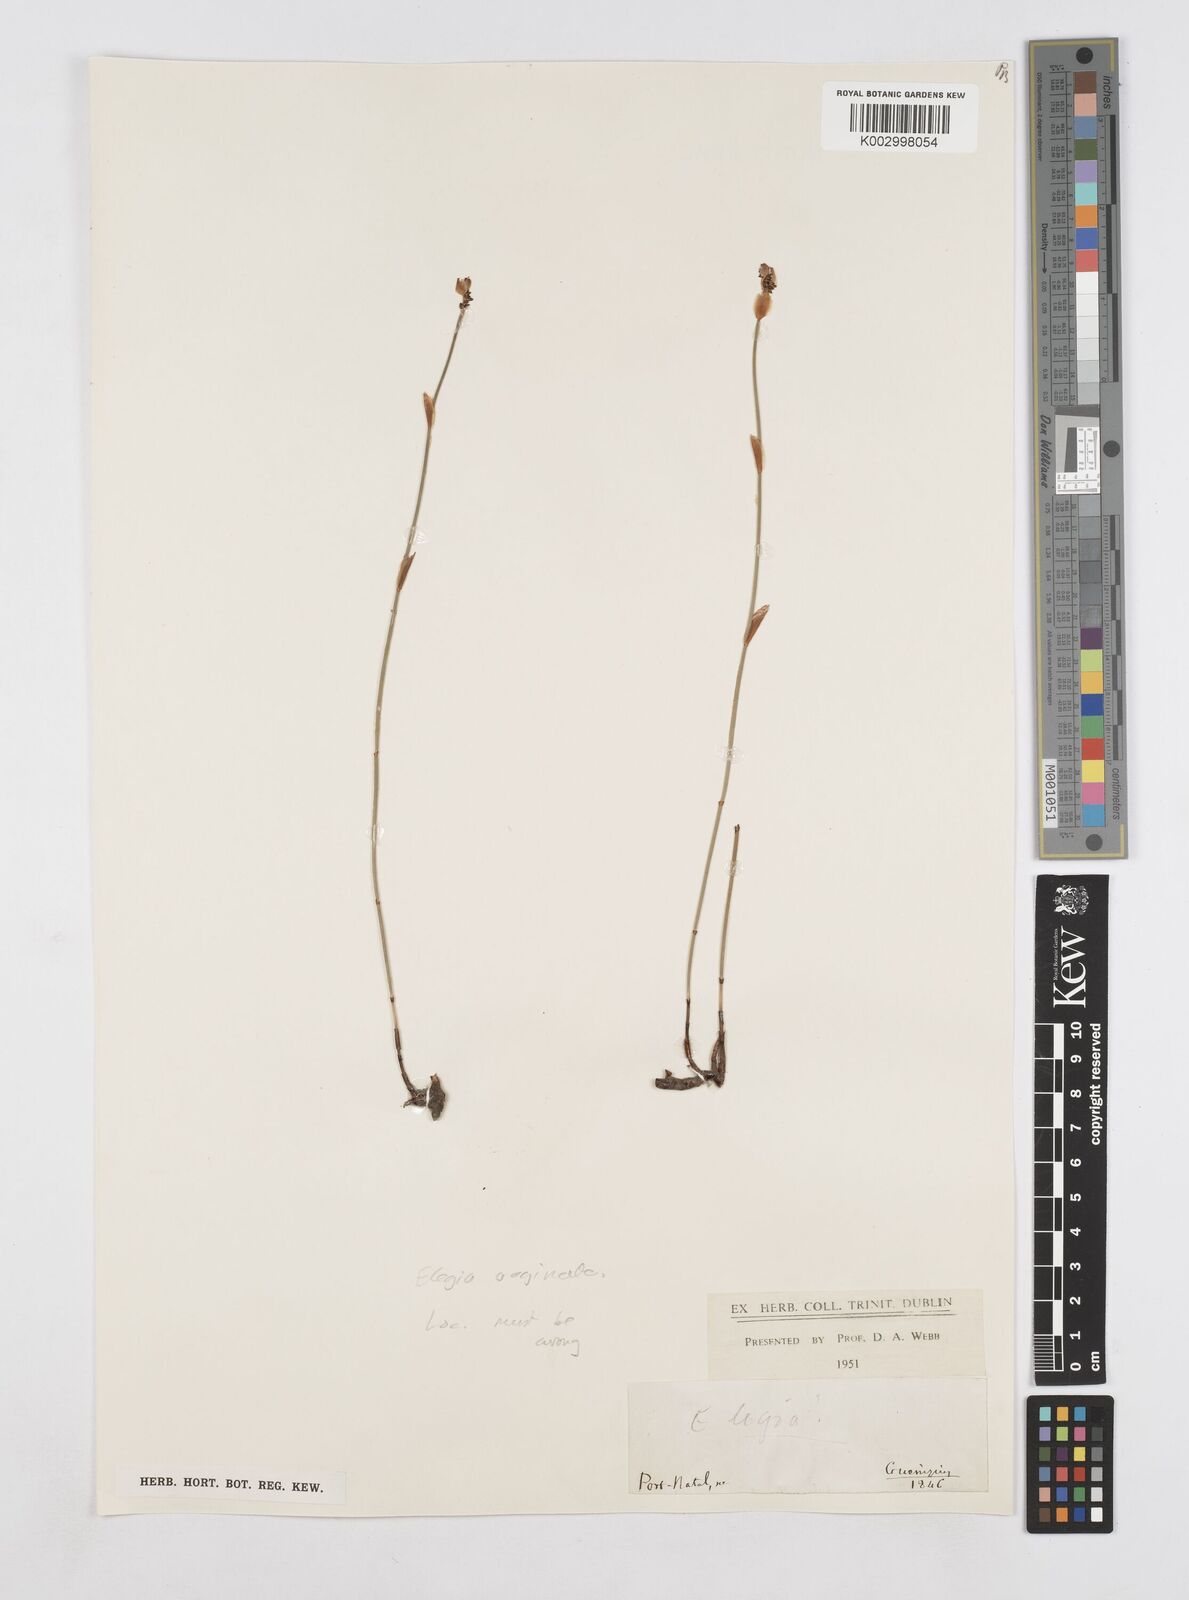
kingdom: Plantae
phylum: Tracheophyta
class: Liliopsida
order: Poales
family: Restionaceae
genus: Elegia
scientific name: Elegia vaginulata
